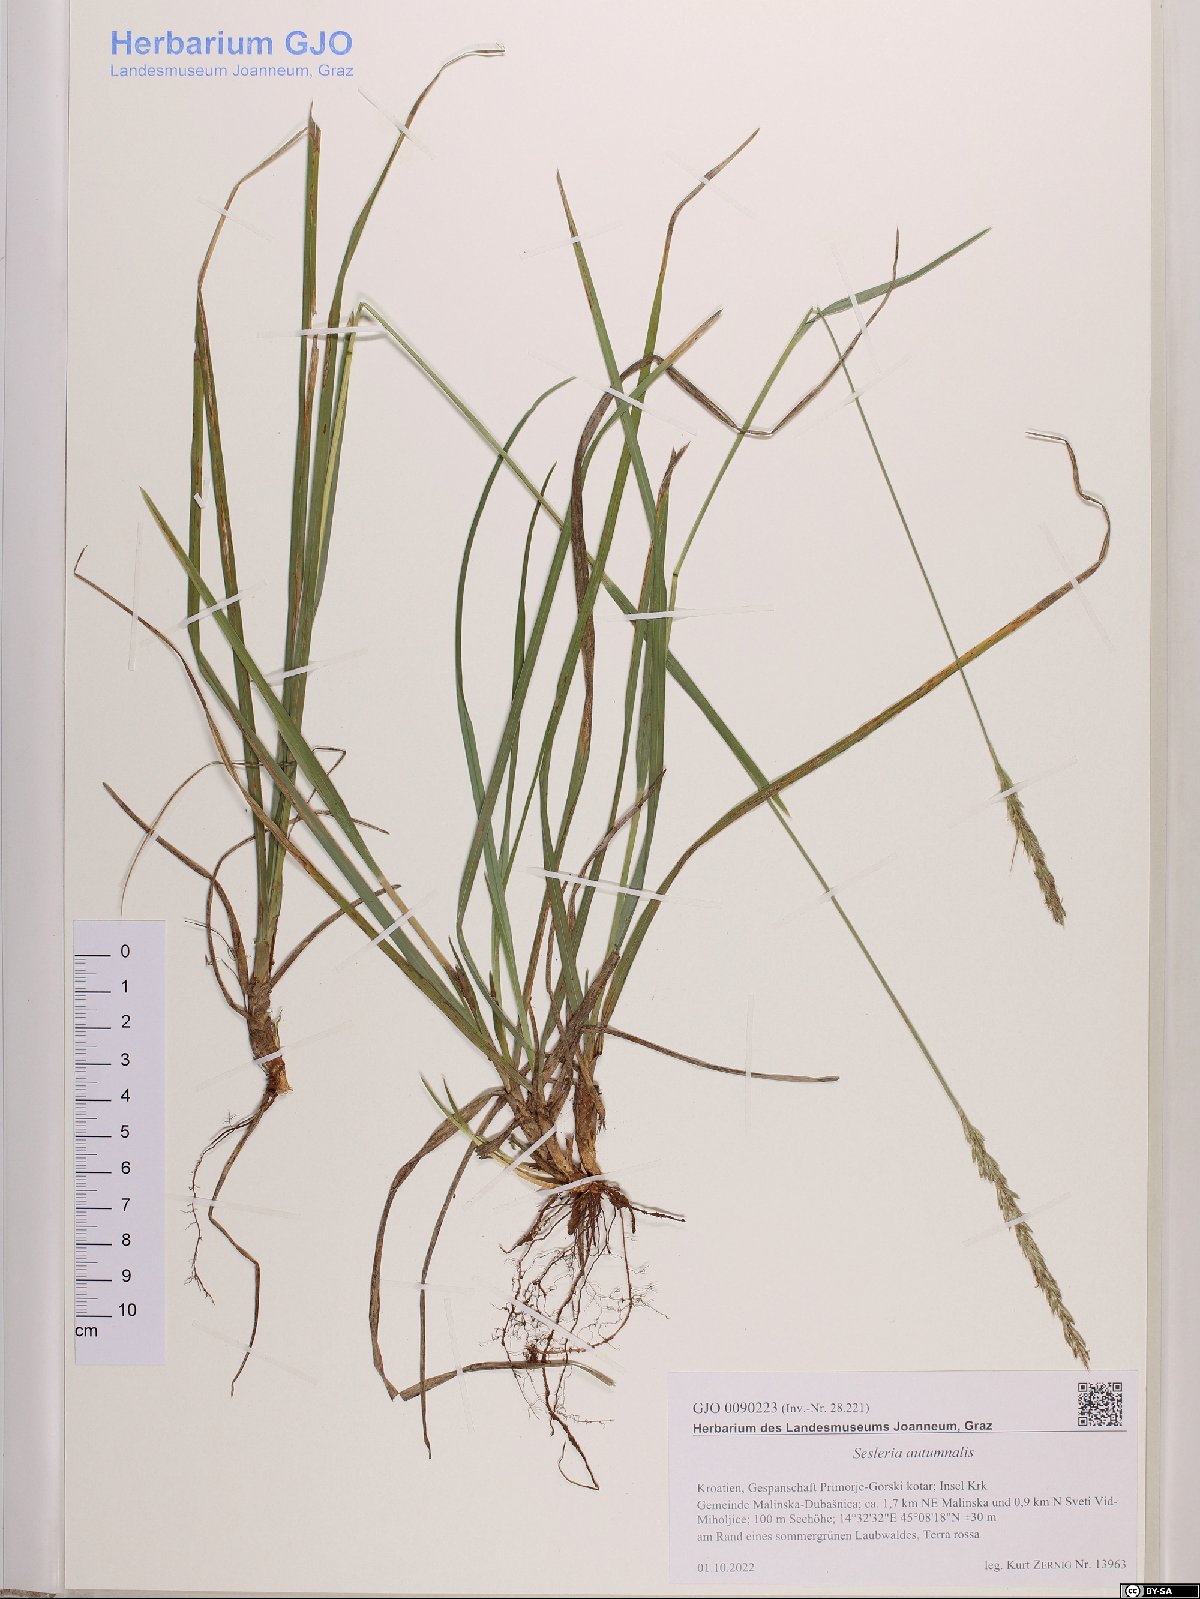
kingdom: Plantae
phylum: Tracheophyta
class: Liliopsida
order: Poales
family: Poaceae
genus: Sesleria
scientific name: Sesleria autumnalis
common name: Autumn moor grass
